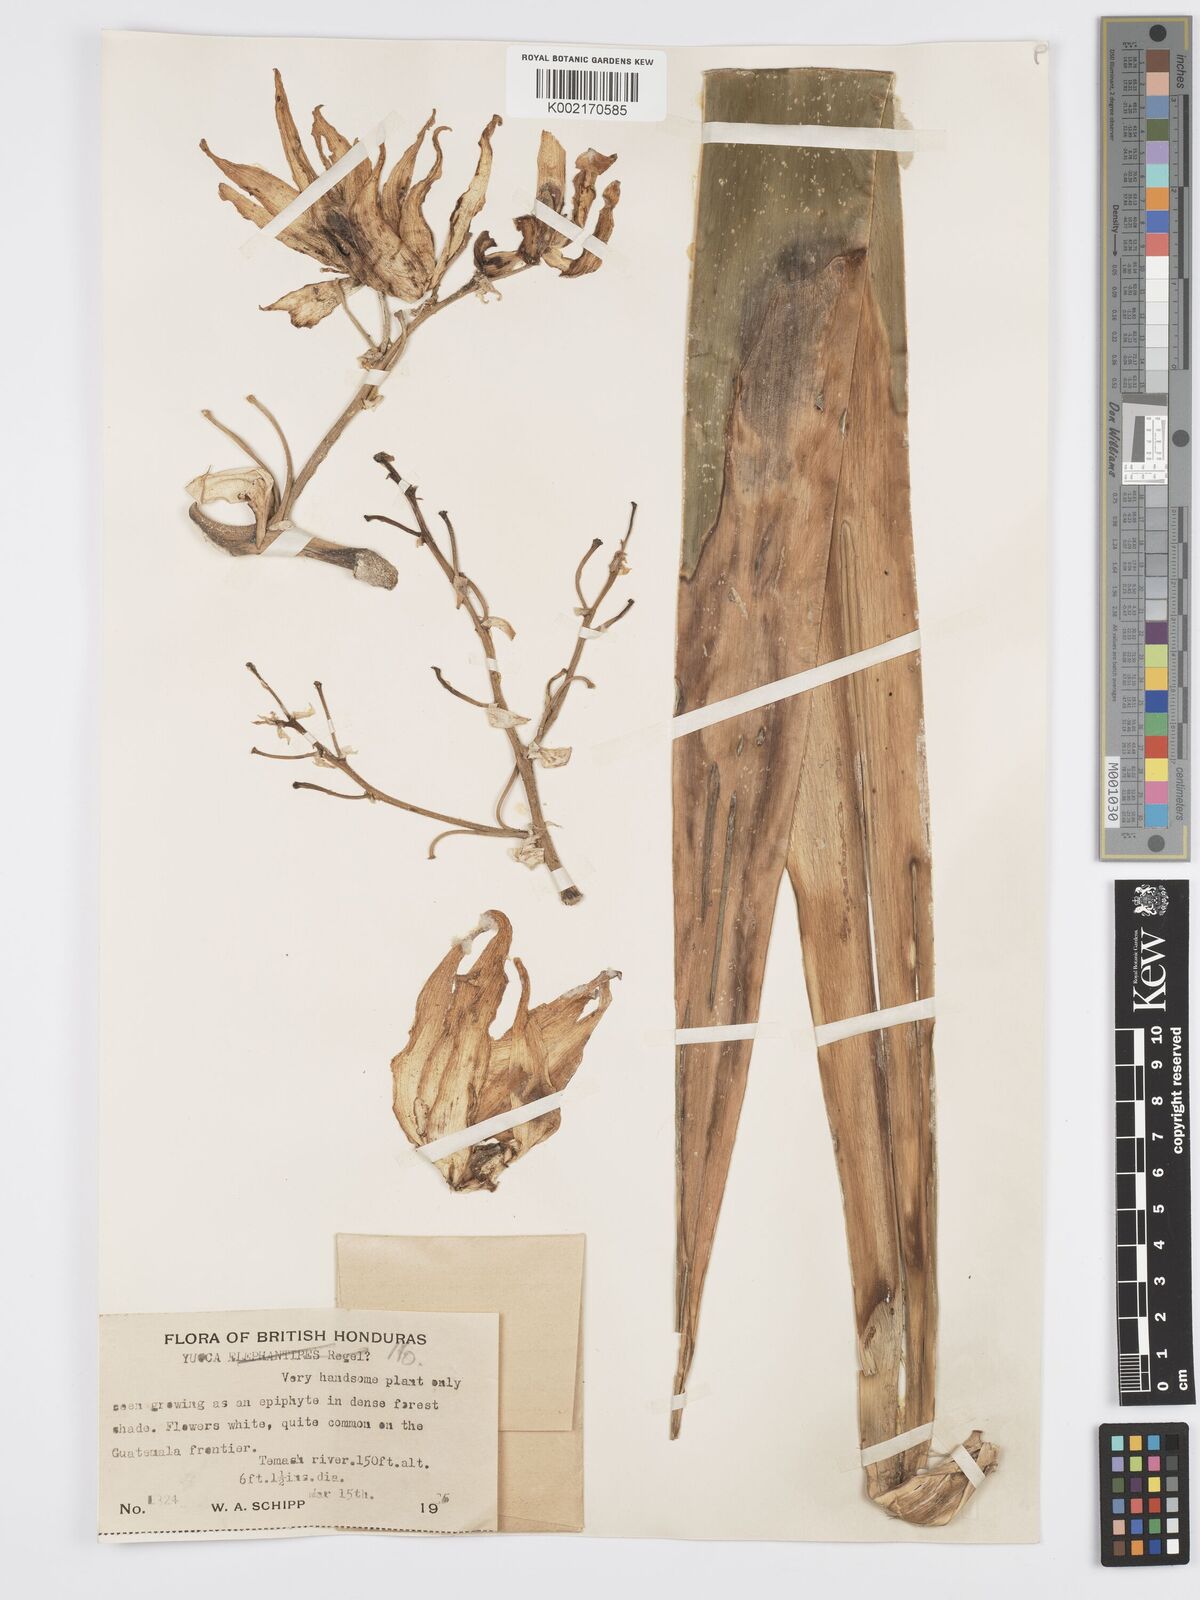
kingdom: Plantae
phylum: Tracheophyta
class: Liliopsida
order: Asparagales
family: Asparagaceae
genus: Yucca
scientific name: Yucca
